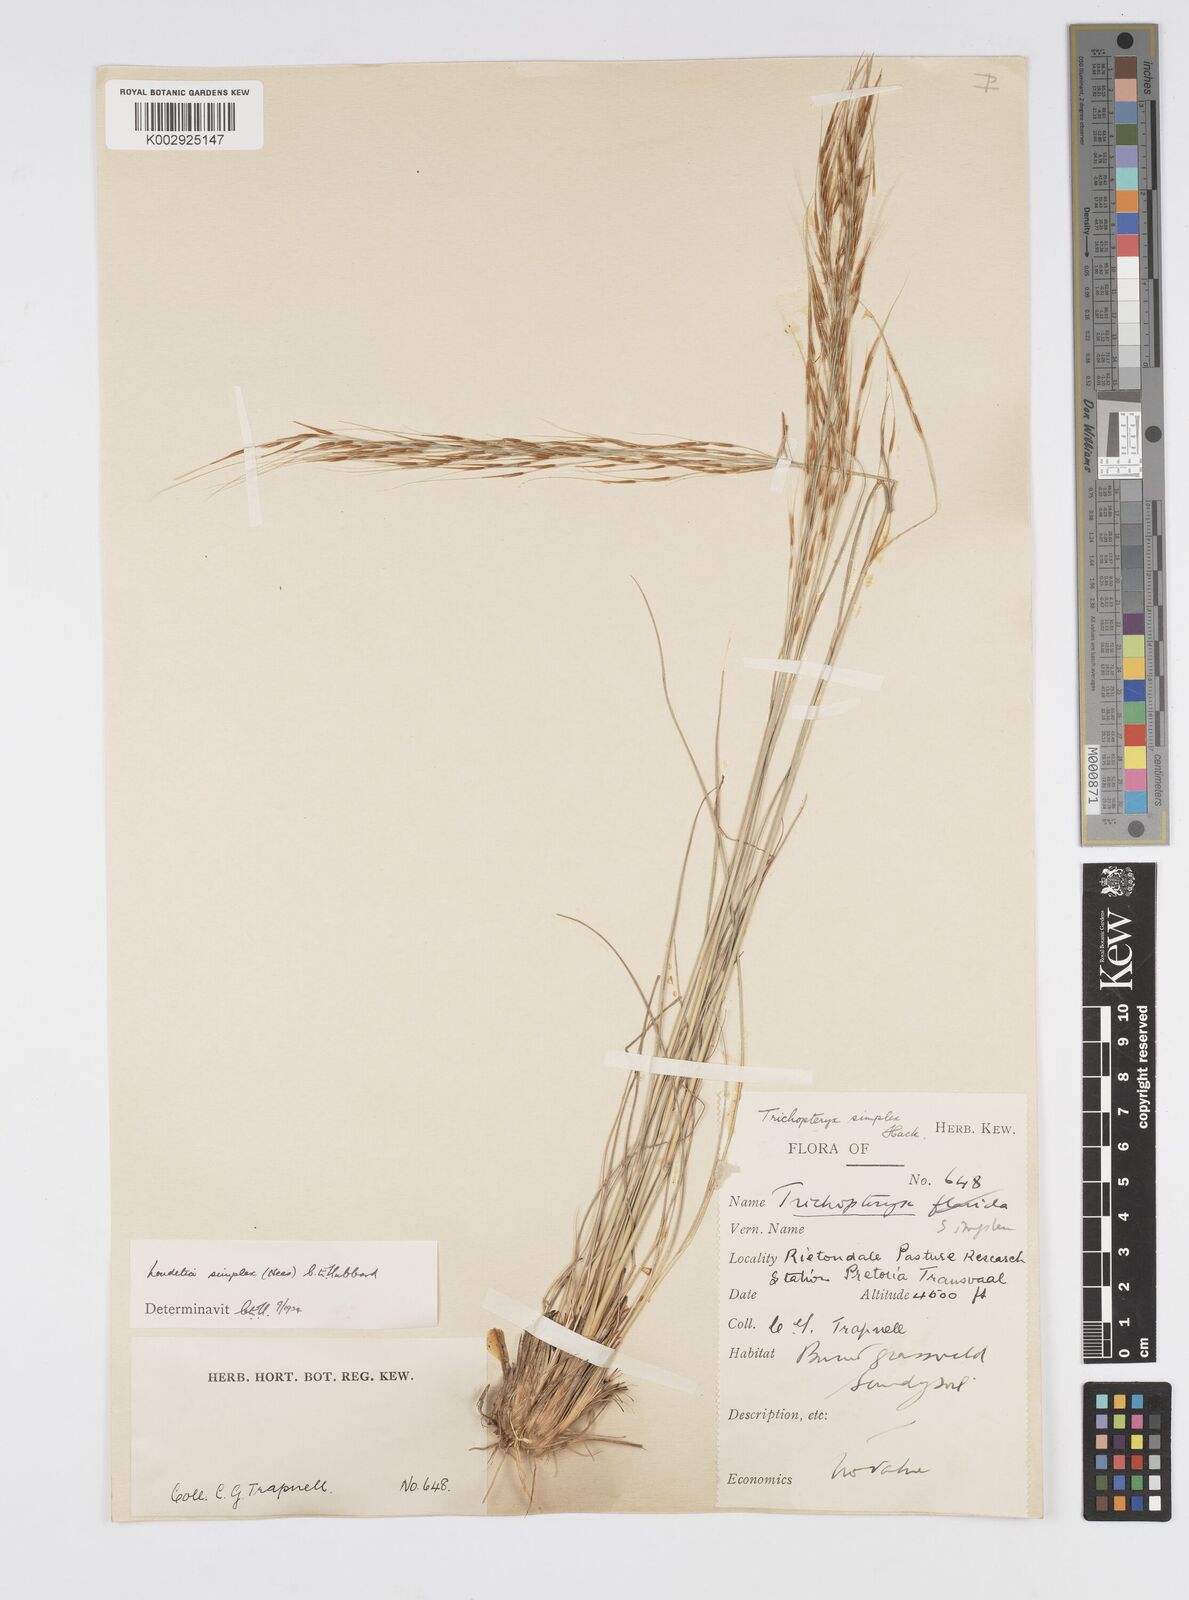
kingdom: Plantae
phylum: Tracheophyta
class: Liliopsida
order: Poales
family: Poaceae
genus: Loudetia
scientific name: Loudetia simplex
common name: Common russet grass
